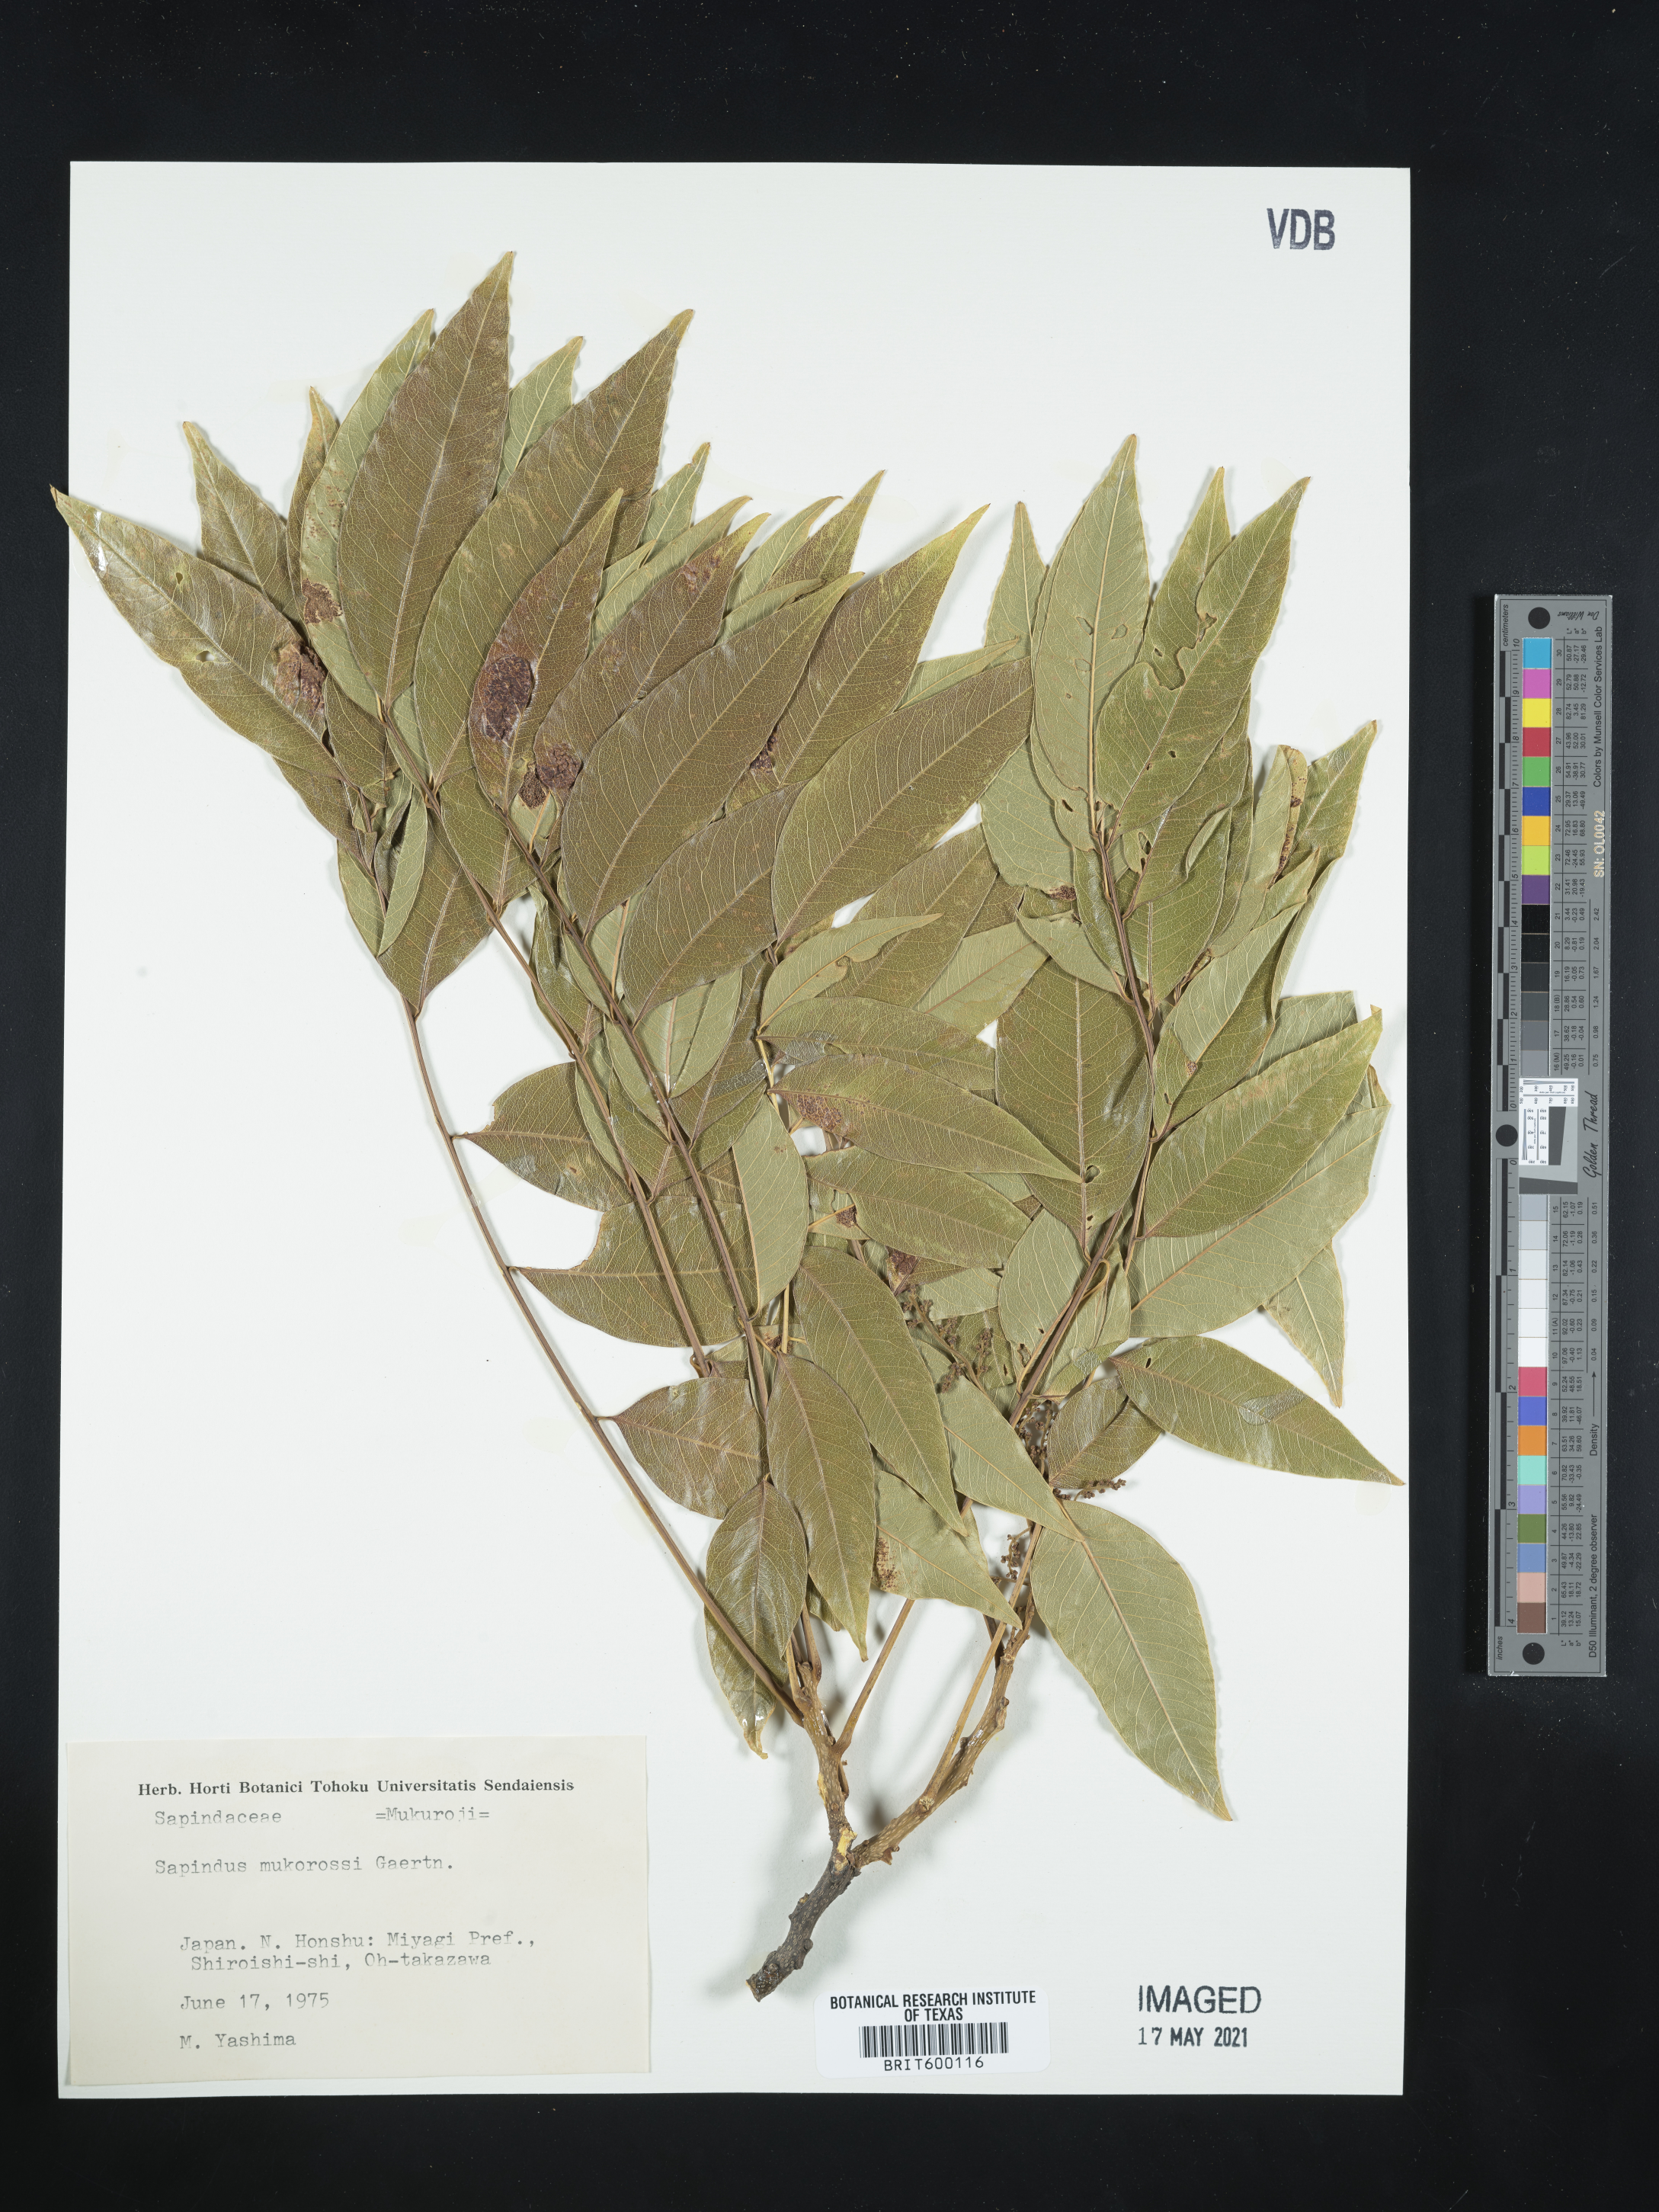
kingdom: Plantae
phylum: Tracheophyta
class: Magnoliopsida
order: Sapindales
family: Sapindaceae
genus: Sapindus
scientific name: Sapindus mukorossi
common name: Chinese soapberry
